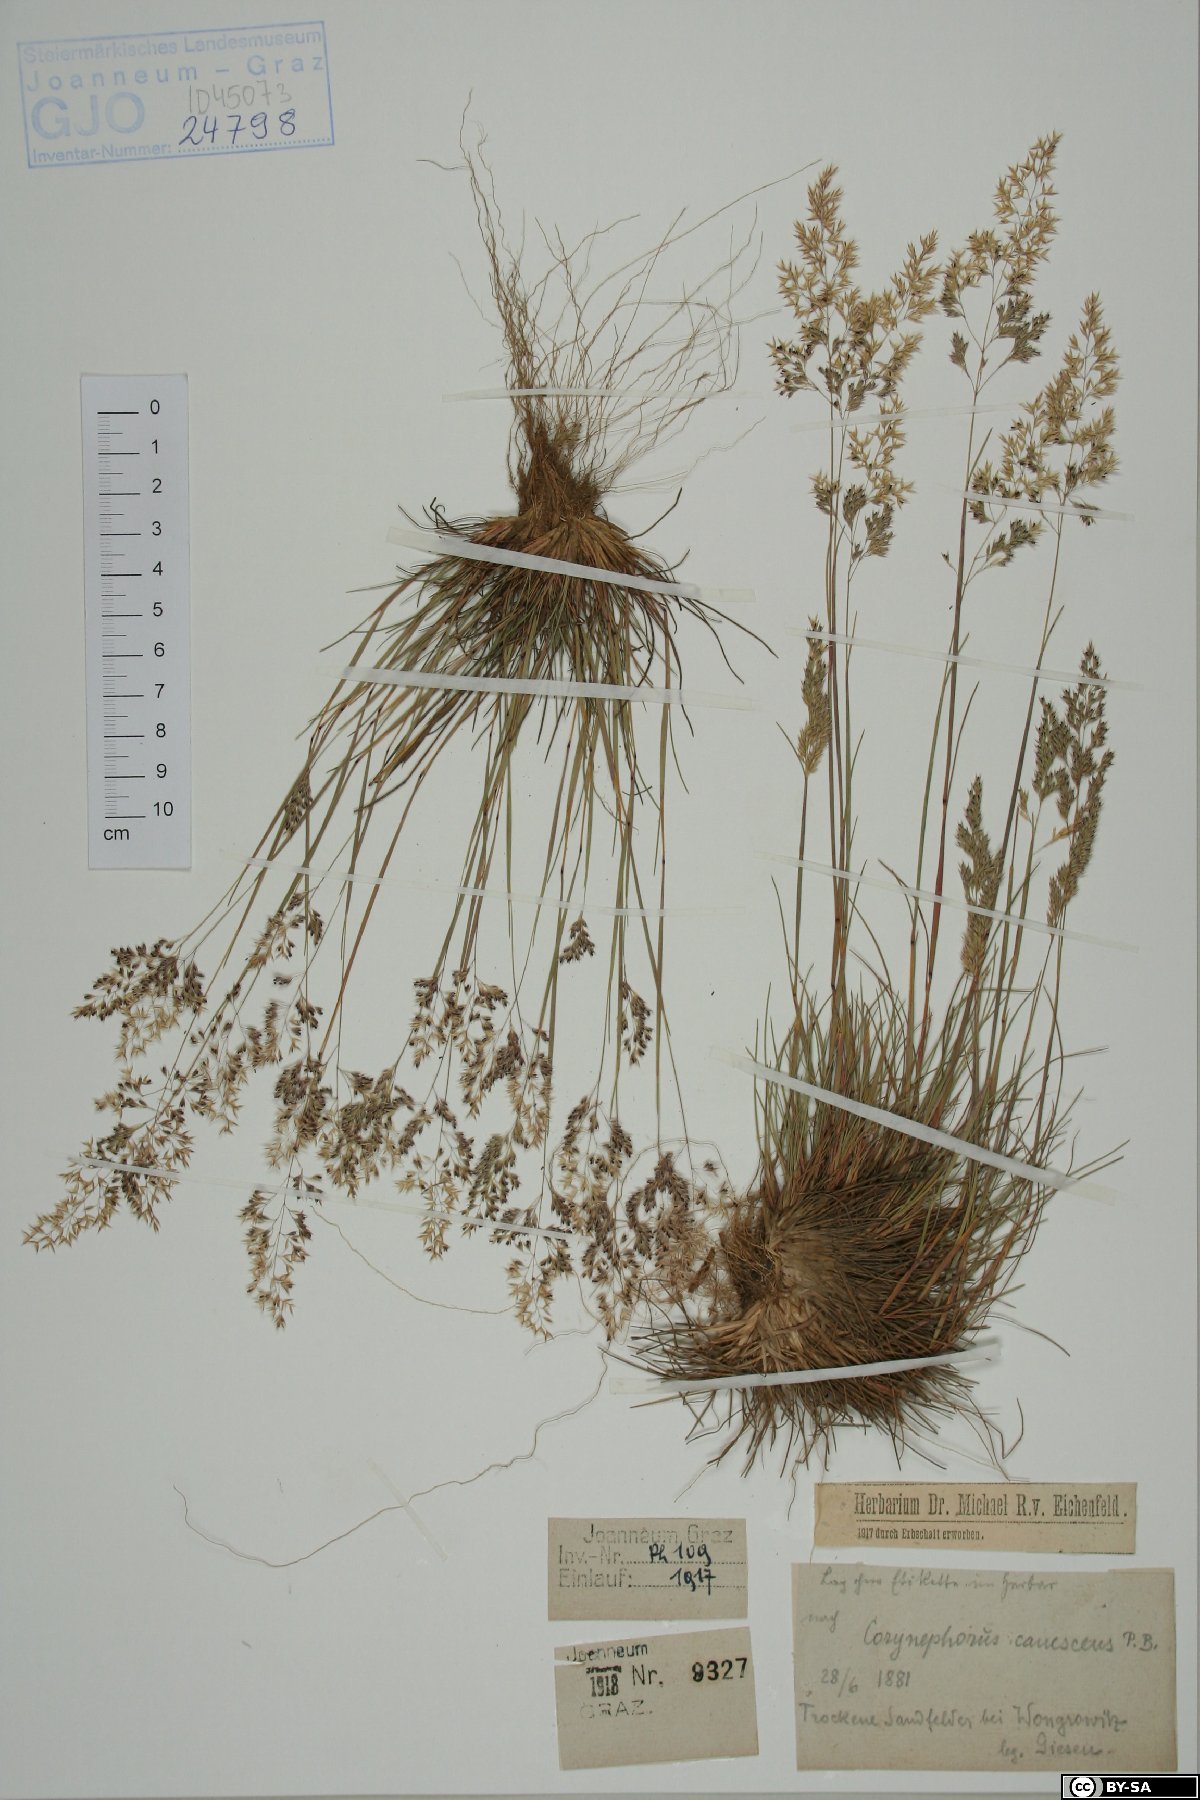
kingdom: Plantae
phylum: Tracheophyta
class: Liliopsida
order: Poales
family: Poaceae
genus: Corynephorus
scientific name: Corynephorus canescens
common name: Grey hair-grass
